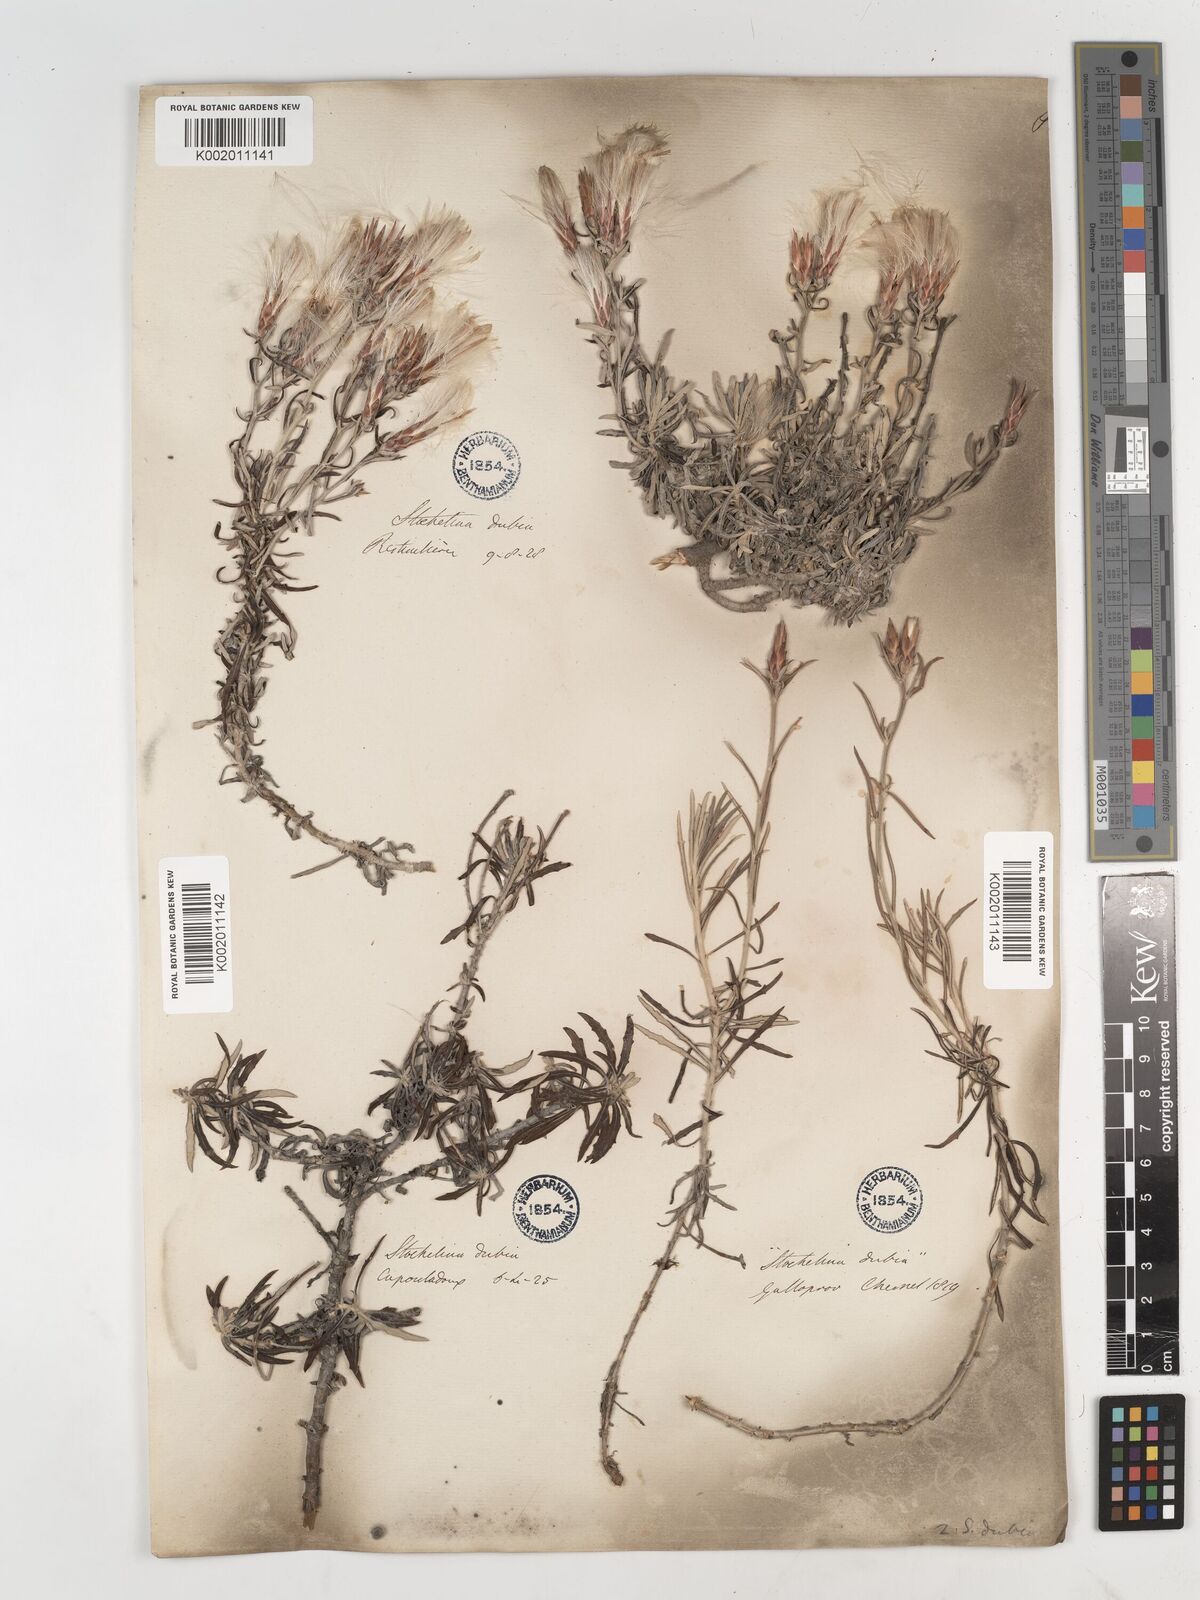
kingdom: Plantae
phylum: Tracheophyta
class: Magnoliopsida
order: Asterales
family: Asteraceae
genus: Staehelina
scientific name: Staehelina dubia
